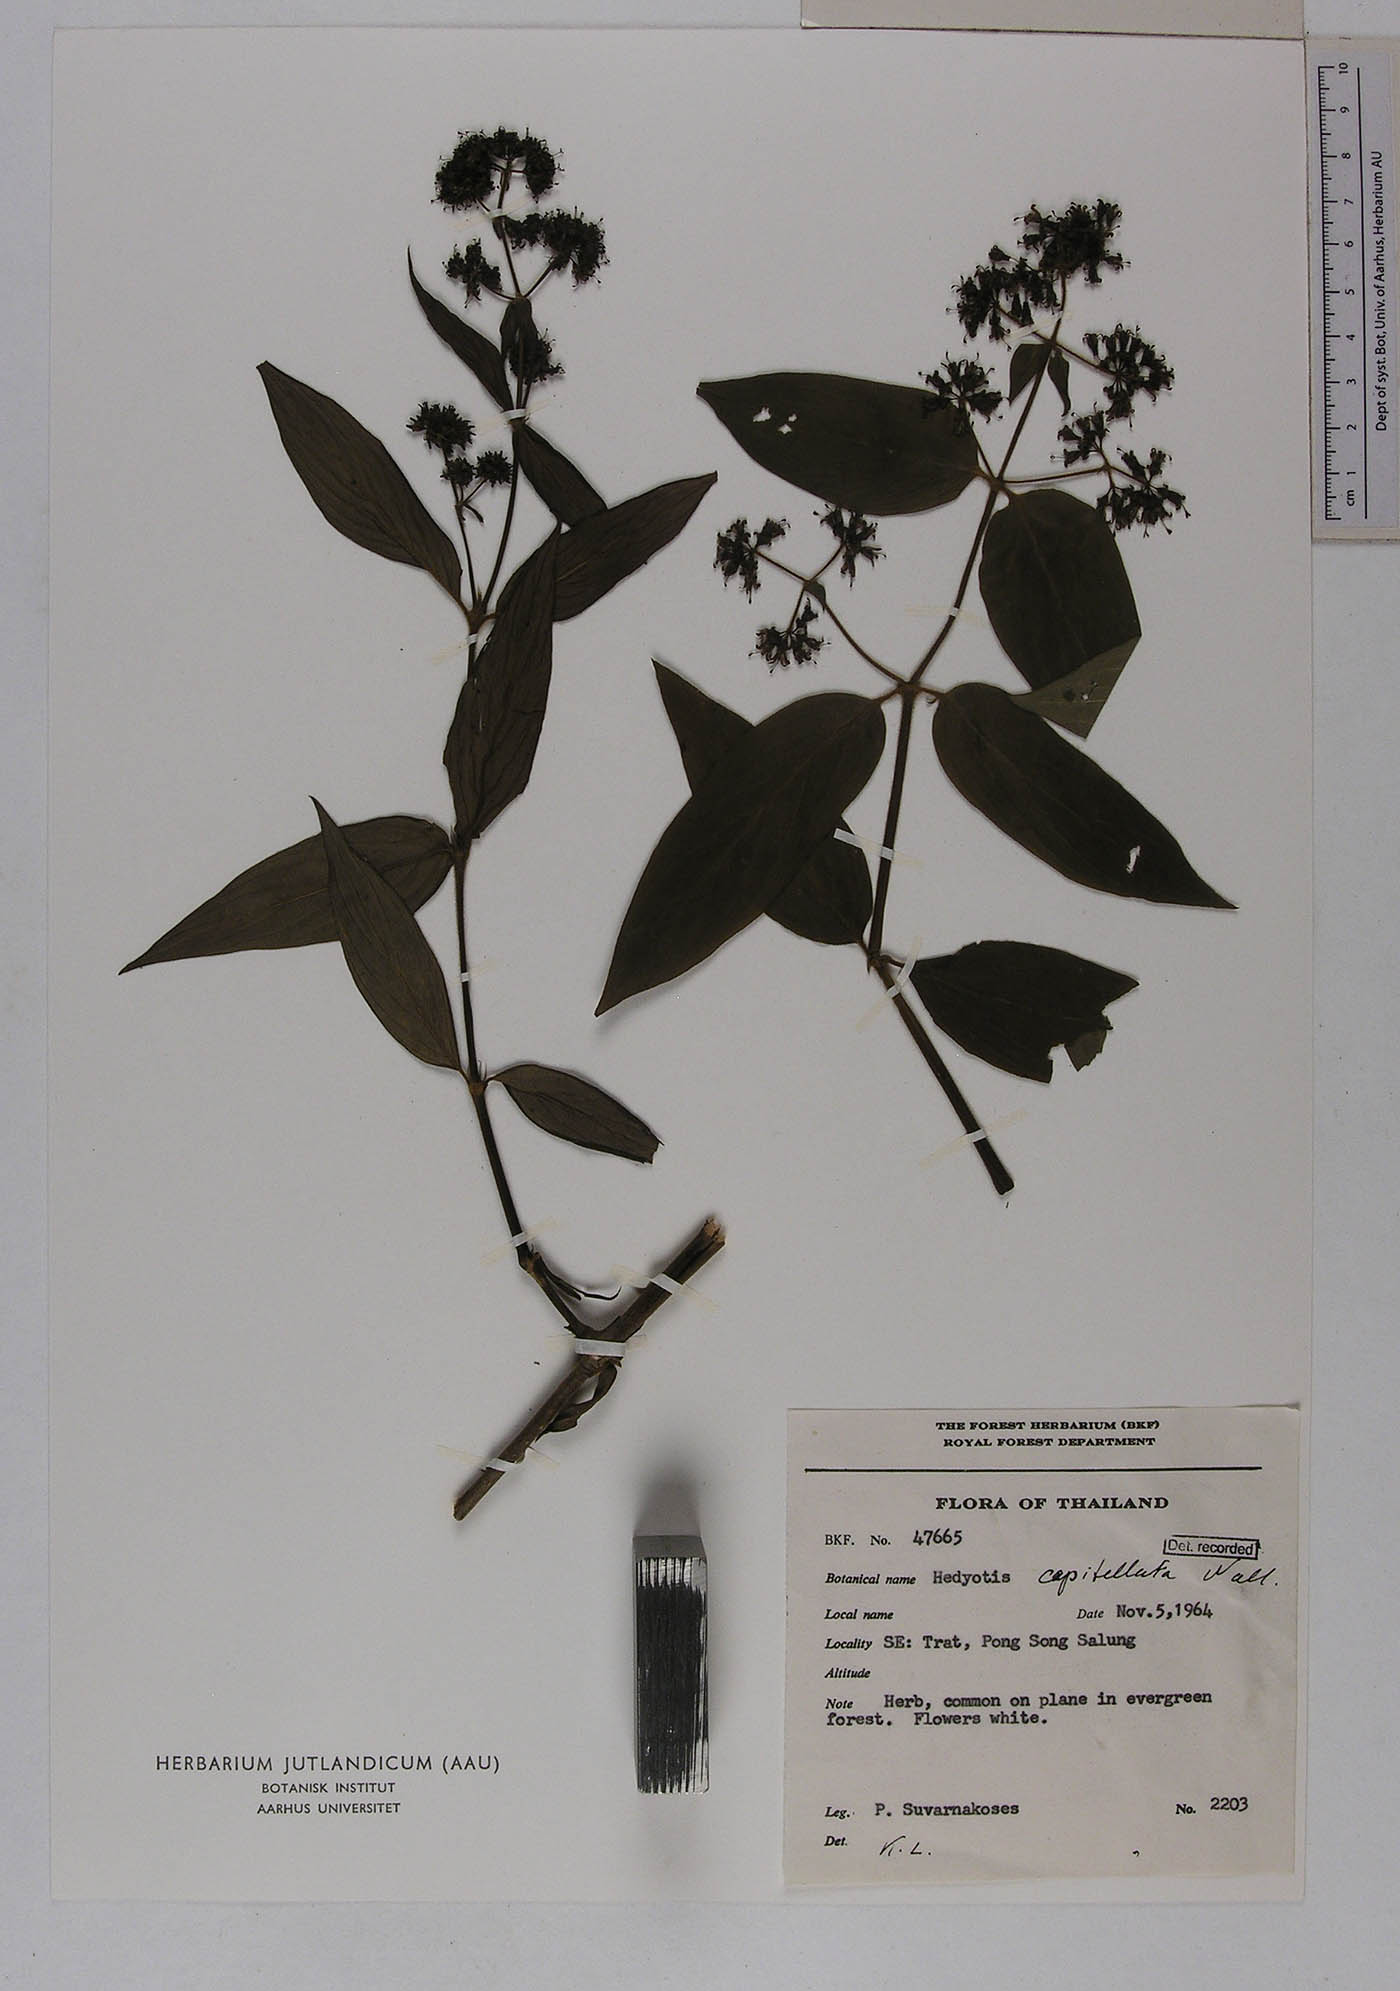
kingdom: Plantae
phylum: Tracheophyta
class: Magnoliopsida
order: Gentianales
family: Rubiaceae
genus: Hedyotis
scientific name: Hedyotis capitellata
